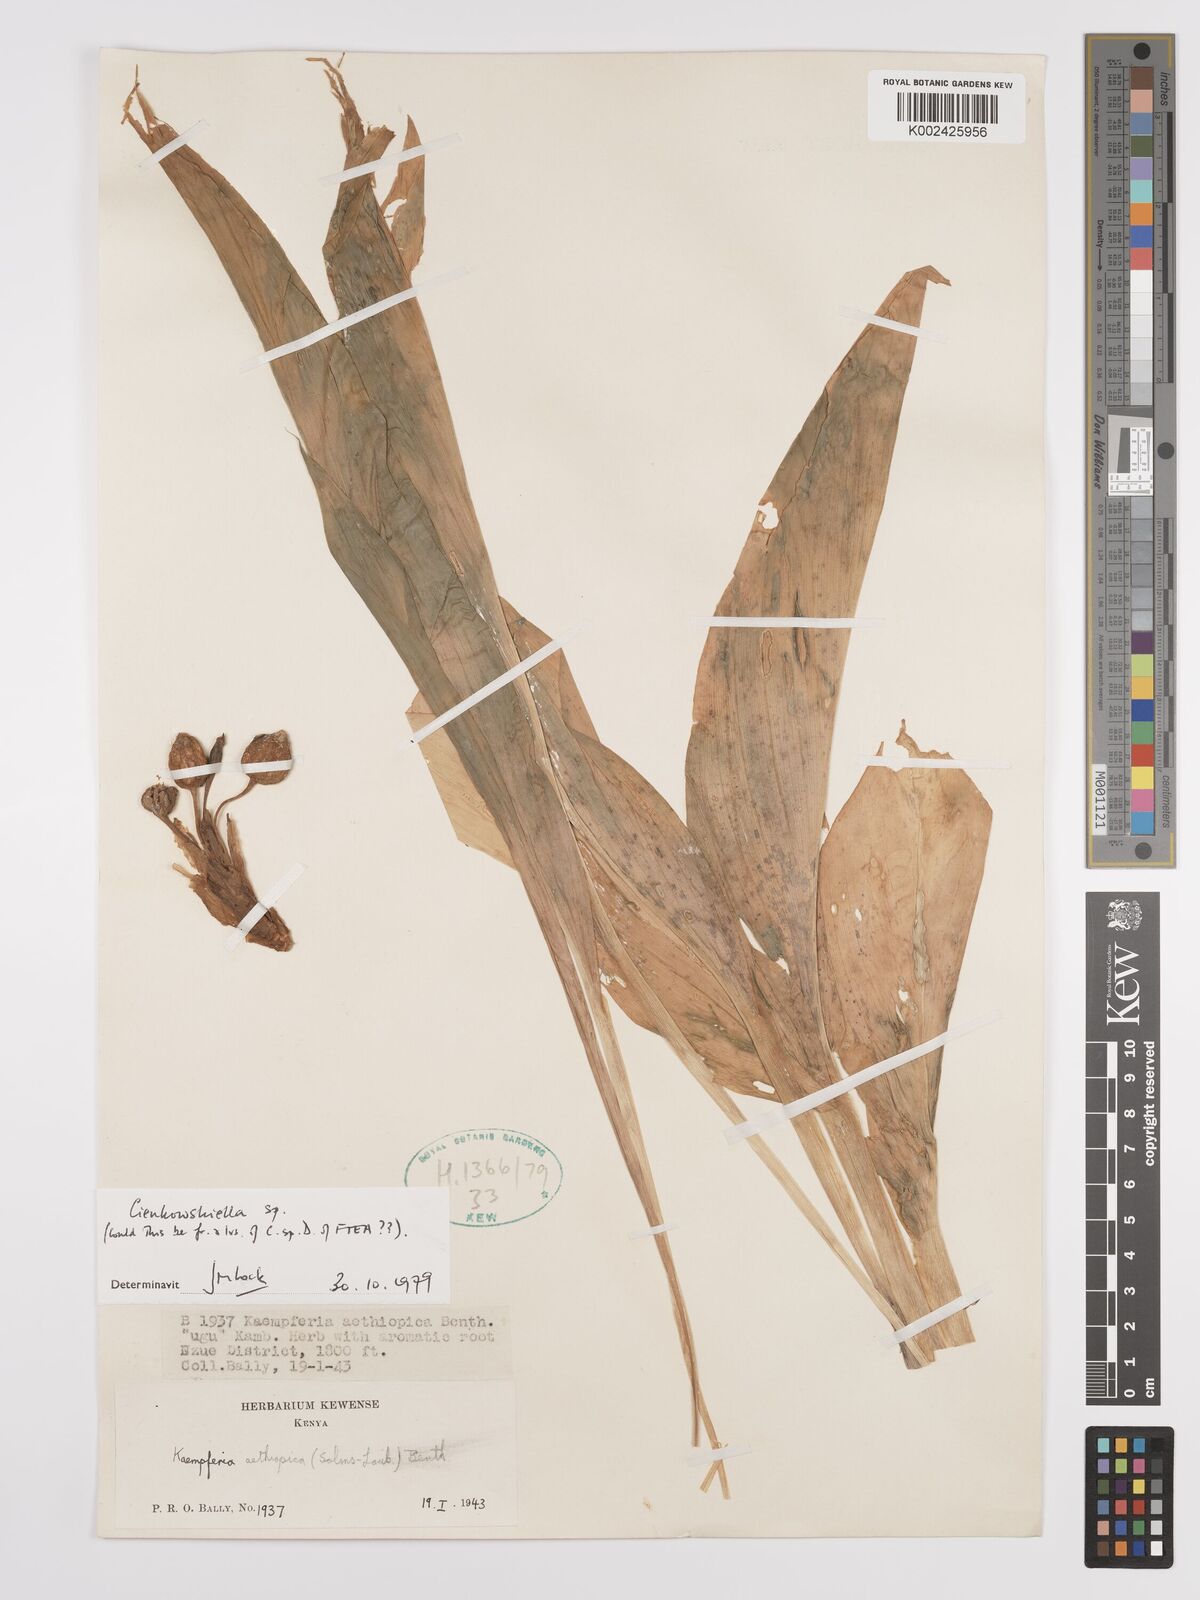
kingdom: Plantae
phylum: Tracheophyta
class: Liliopsida
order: Zingiberales
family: Zingiberaceae
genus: Siphonochilus
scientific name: Siphonochilus
